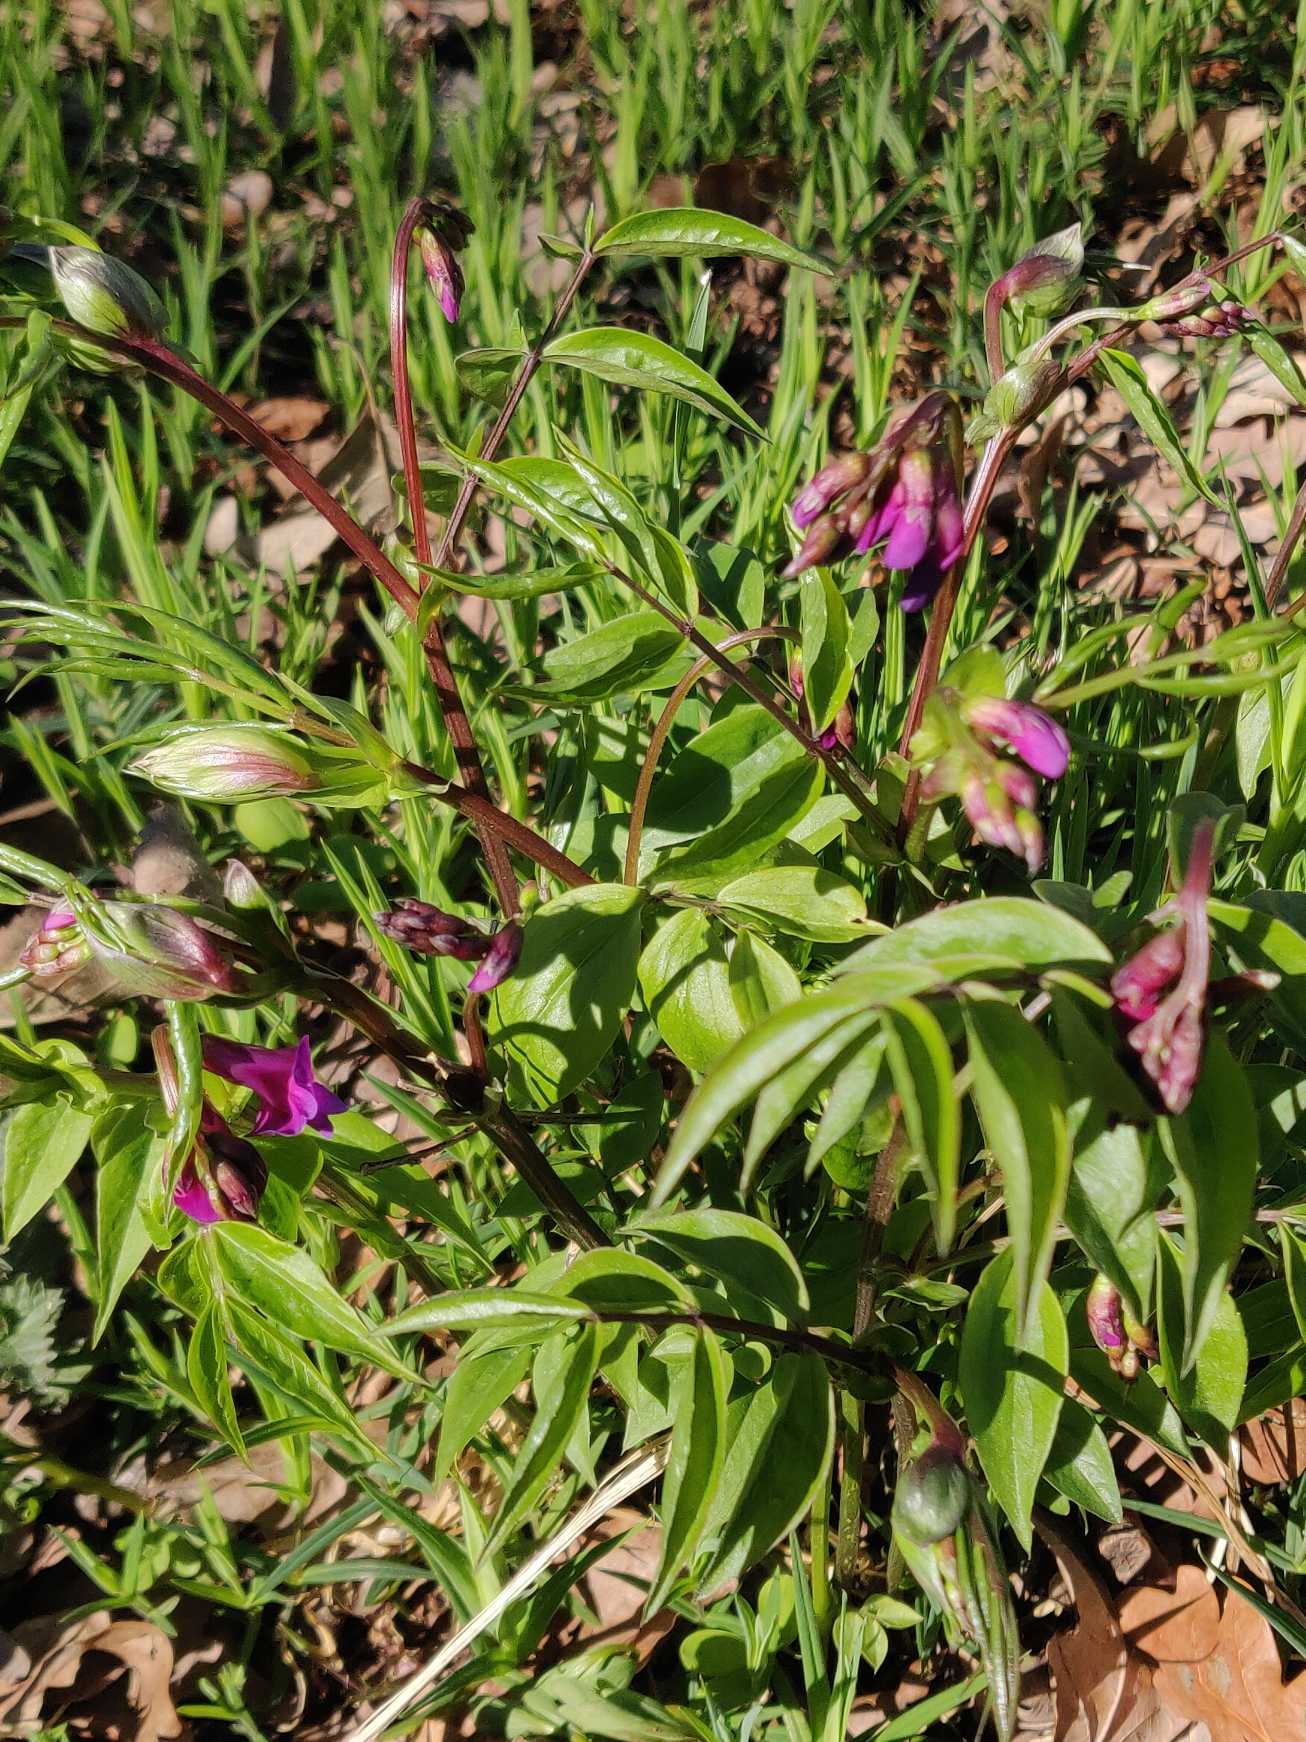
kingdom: Plantae
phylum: Tracheophyta
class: Magnoliopsida
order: Fabales
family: Fabaceae
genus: Lathyrus
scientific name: Lathyrus vernus
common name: Vår-fladbælg
